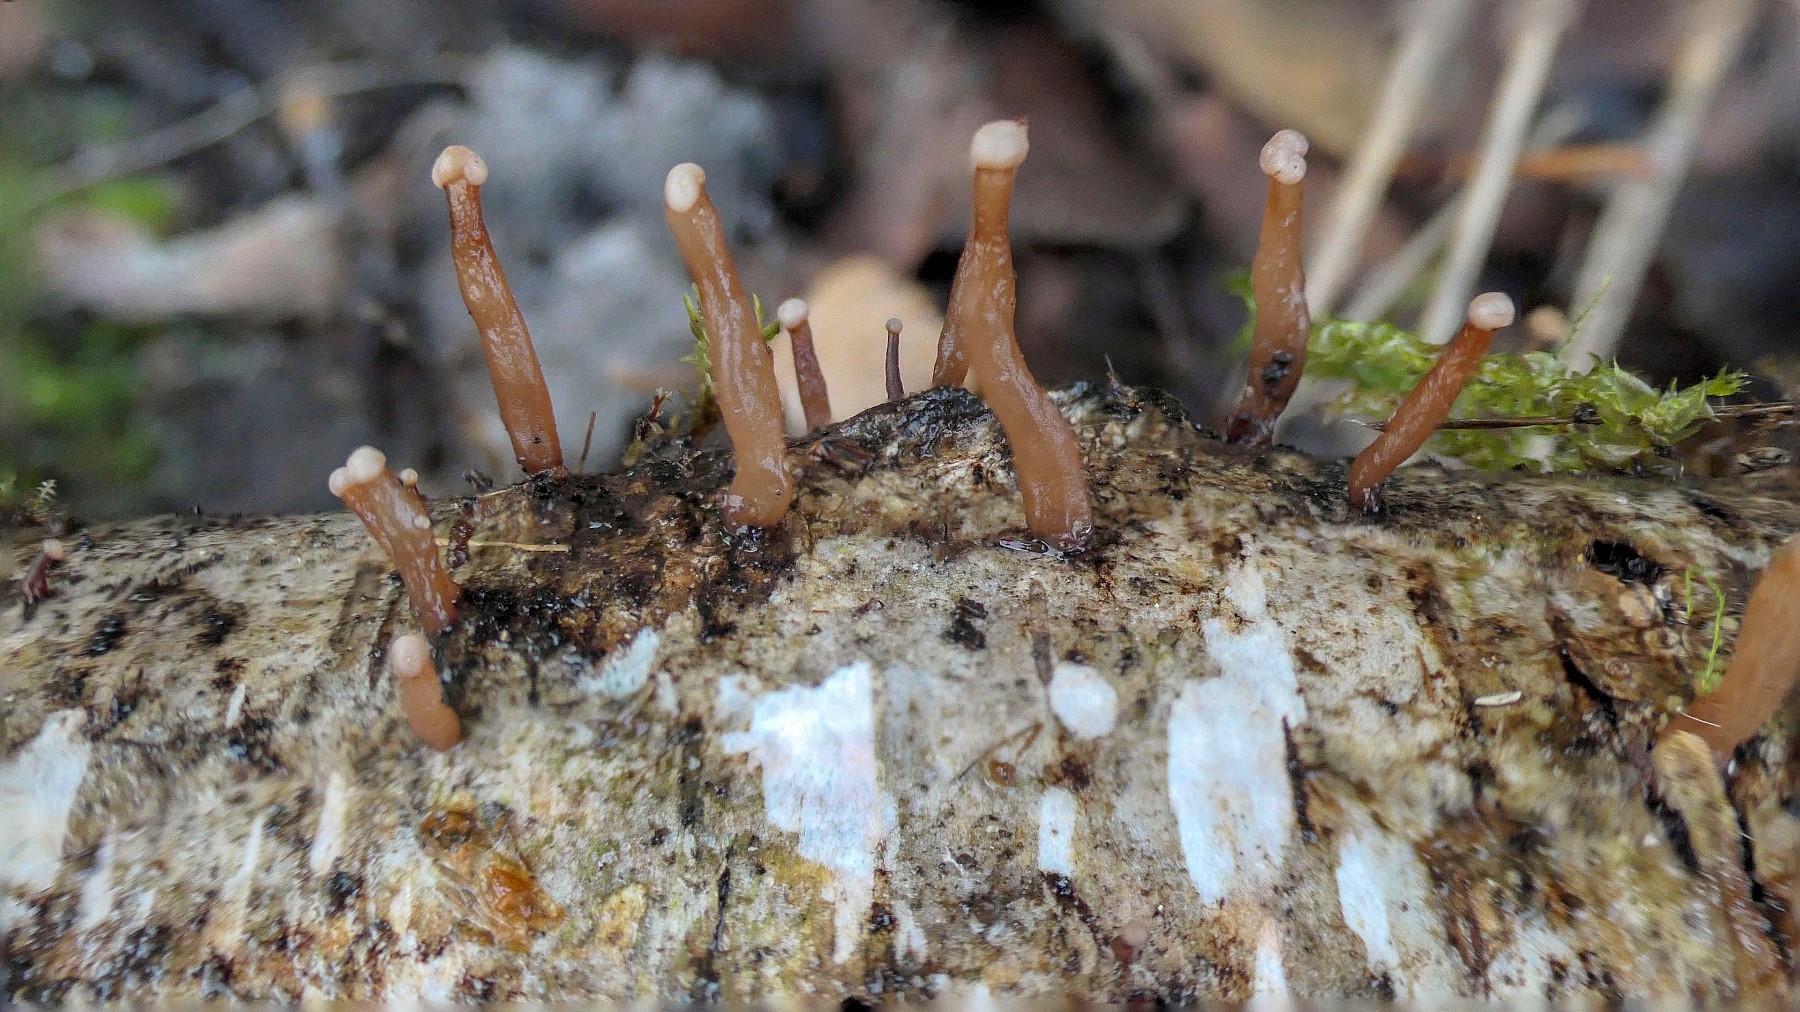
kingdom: Fungi
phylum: Ascomycota
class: Leotiomycetes
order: Helotiales
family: Gelatinodiscaceae
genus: Ascocoryne
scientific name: Ascocoryne albida
